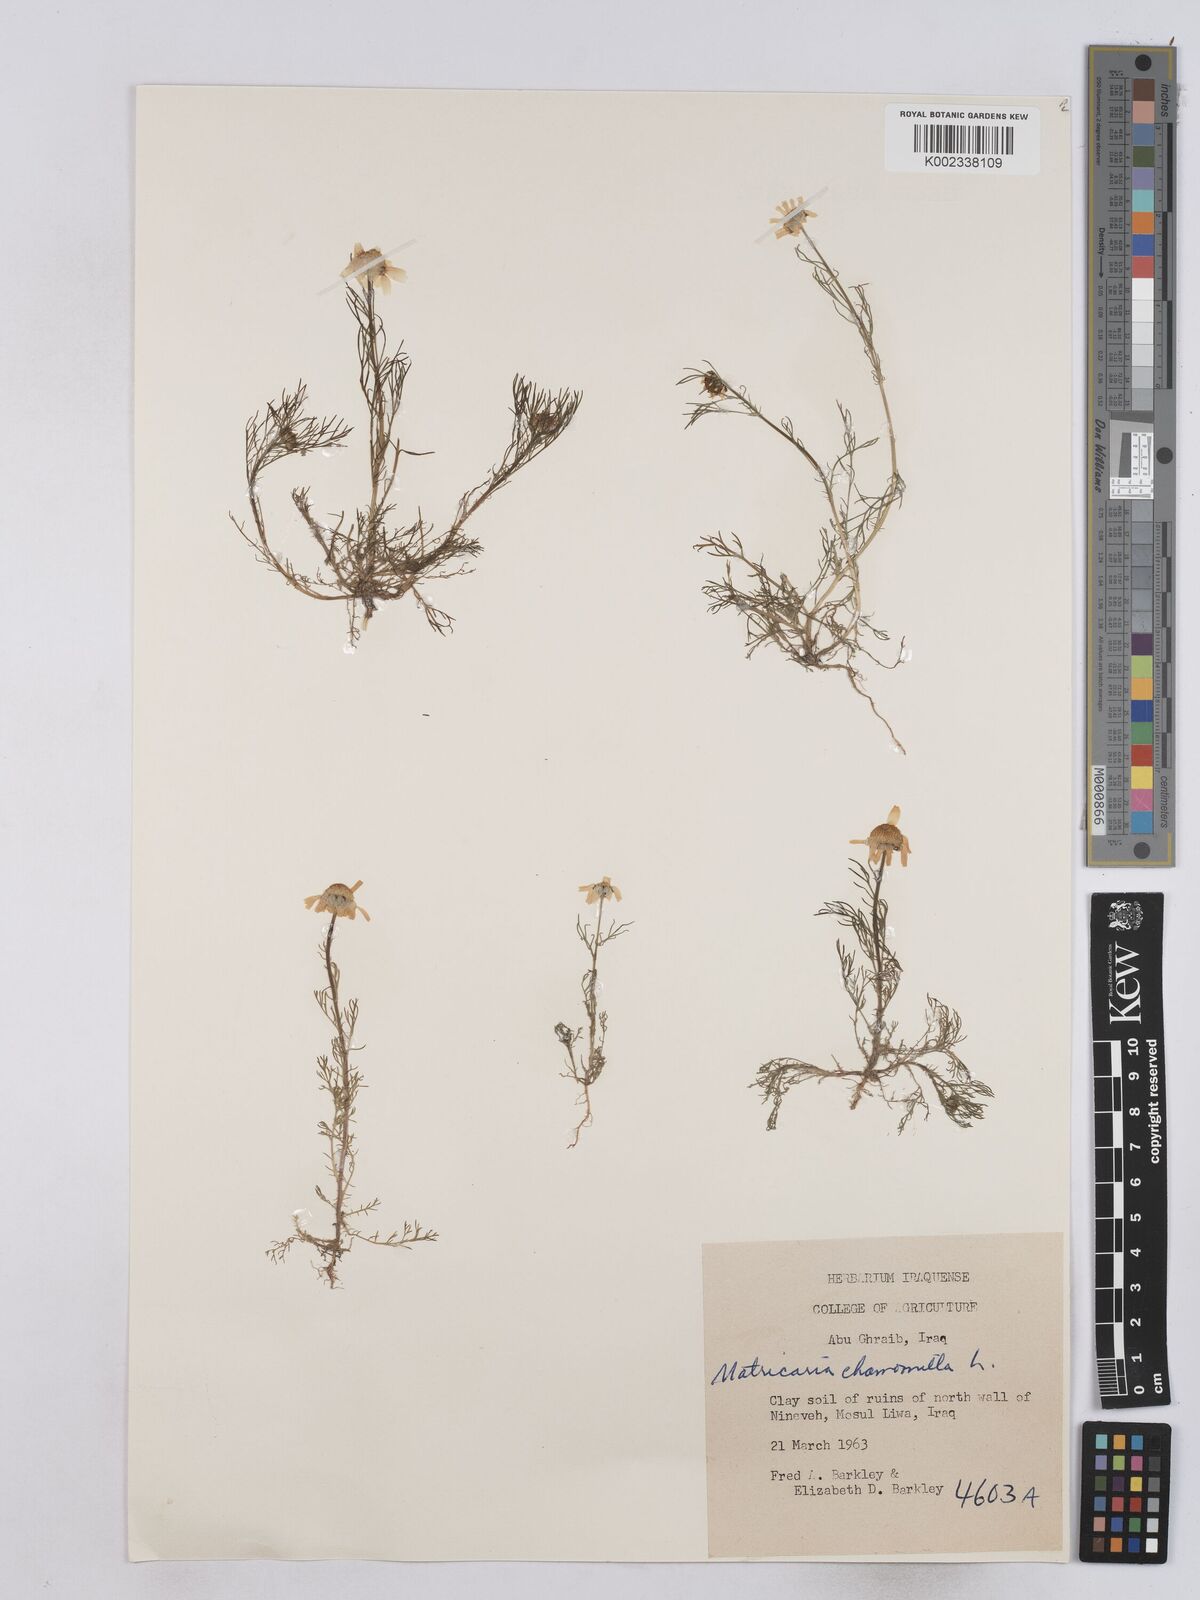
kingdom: Plantae
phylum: Tracheophyta
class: Magnoliopsida
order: Asterales
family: Asteraceae
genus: Matricaria
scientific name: Matricaria chamomilla
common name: Scented mayweed
